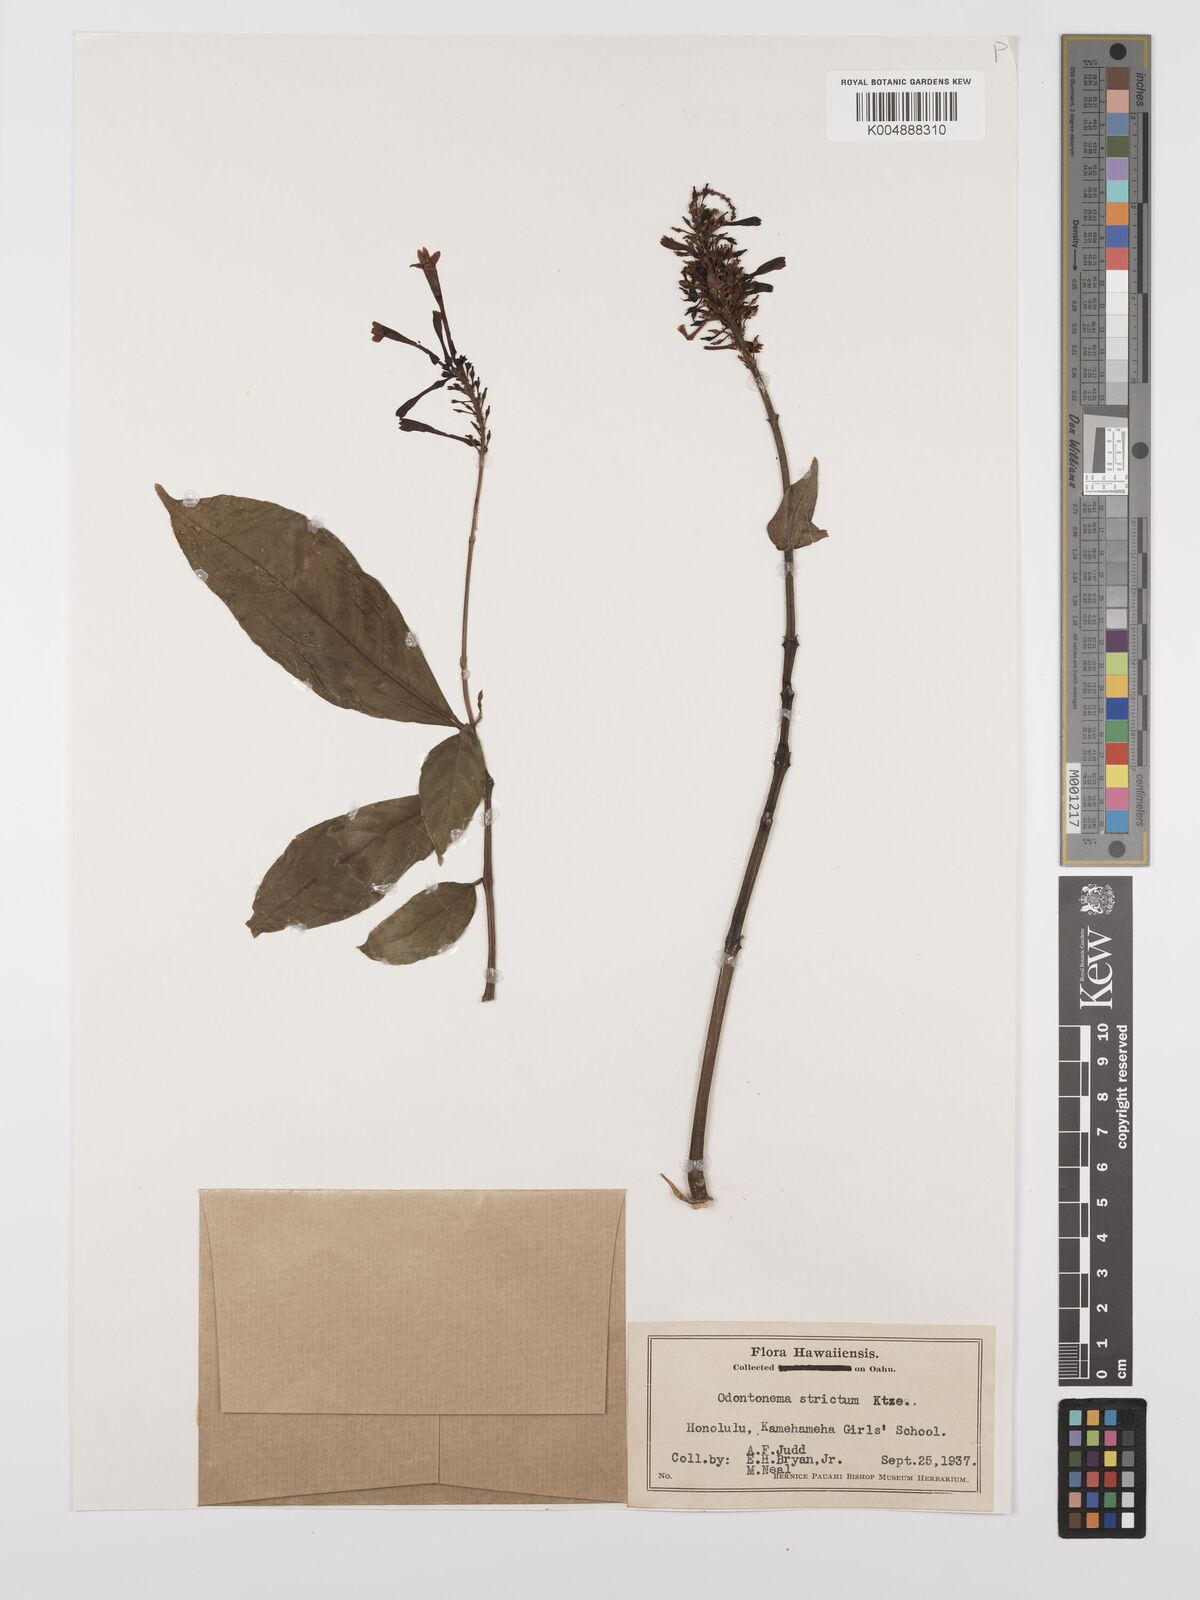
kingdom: Plantae
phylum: Tracheophyta
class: Magnoliopsida
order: Lamiales
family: Acanthaceae
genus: Odontonema
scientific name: Odontonema cuspidatum
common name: Mottled toothedthread
